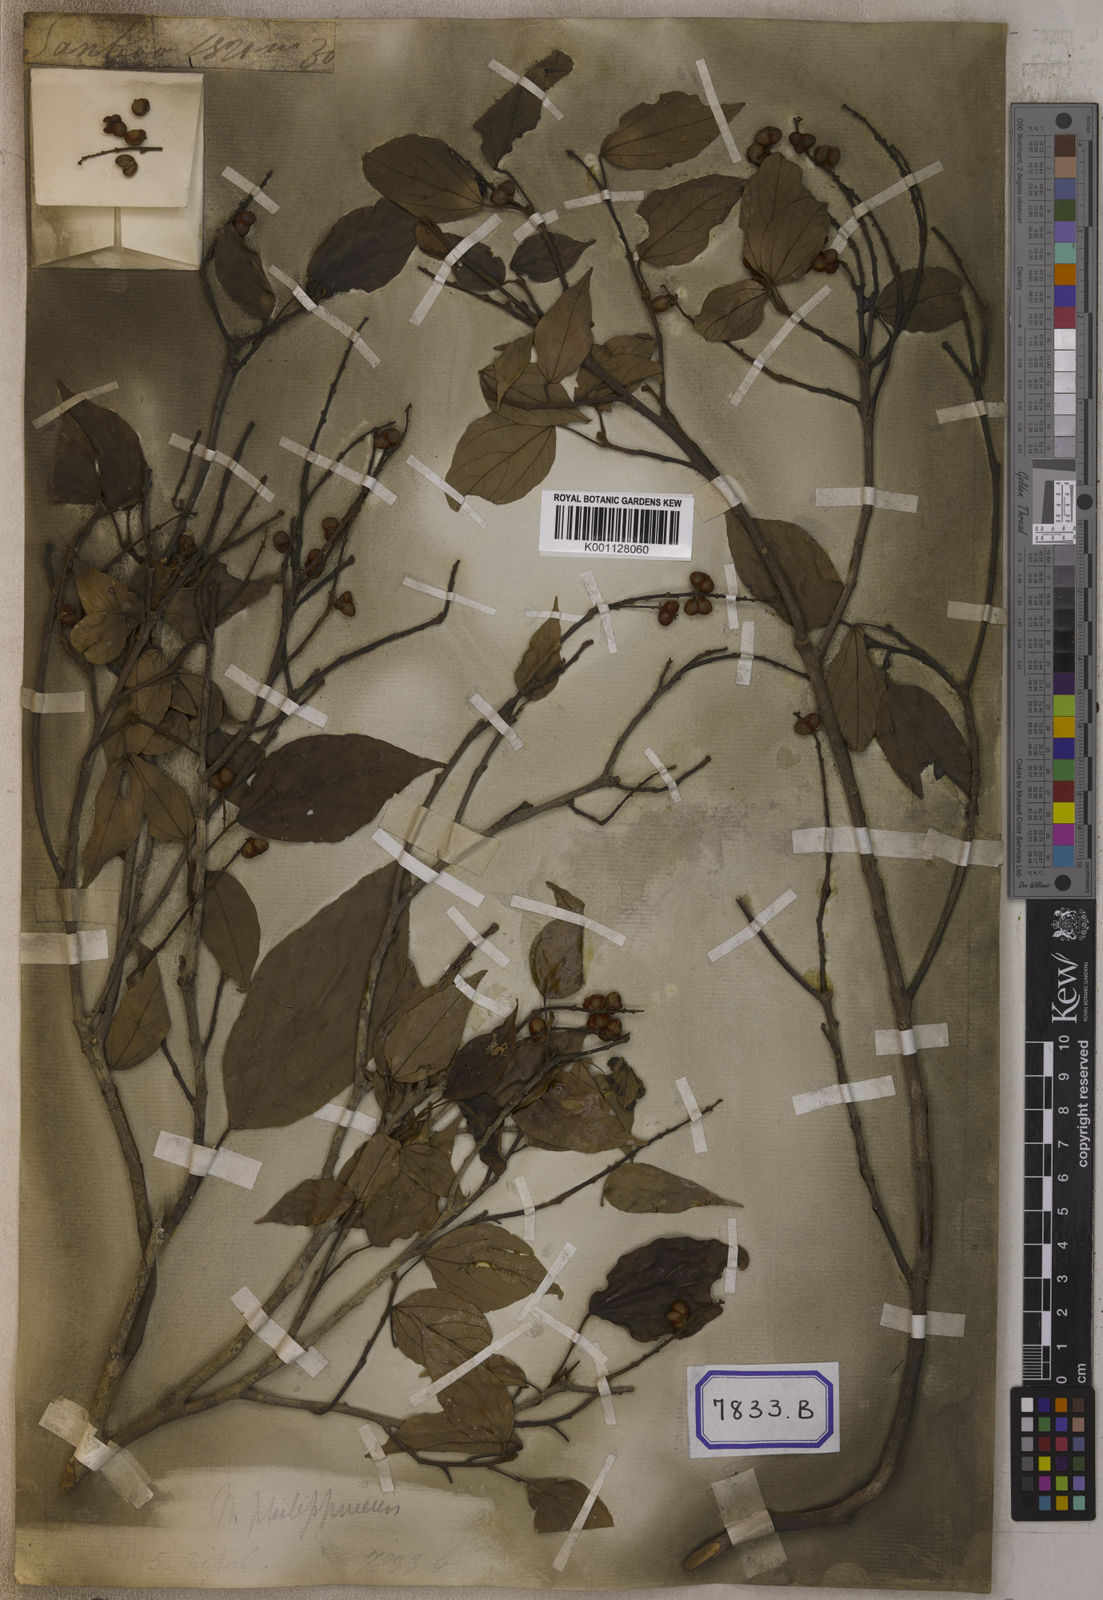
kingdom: Plantae
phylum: Tracheophyta
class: Magnoliopsida
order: Malpighiales
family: Euphorbiaceae
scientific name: Euphorbiaceae
